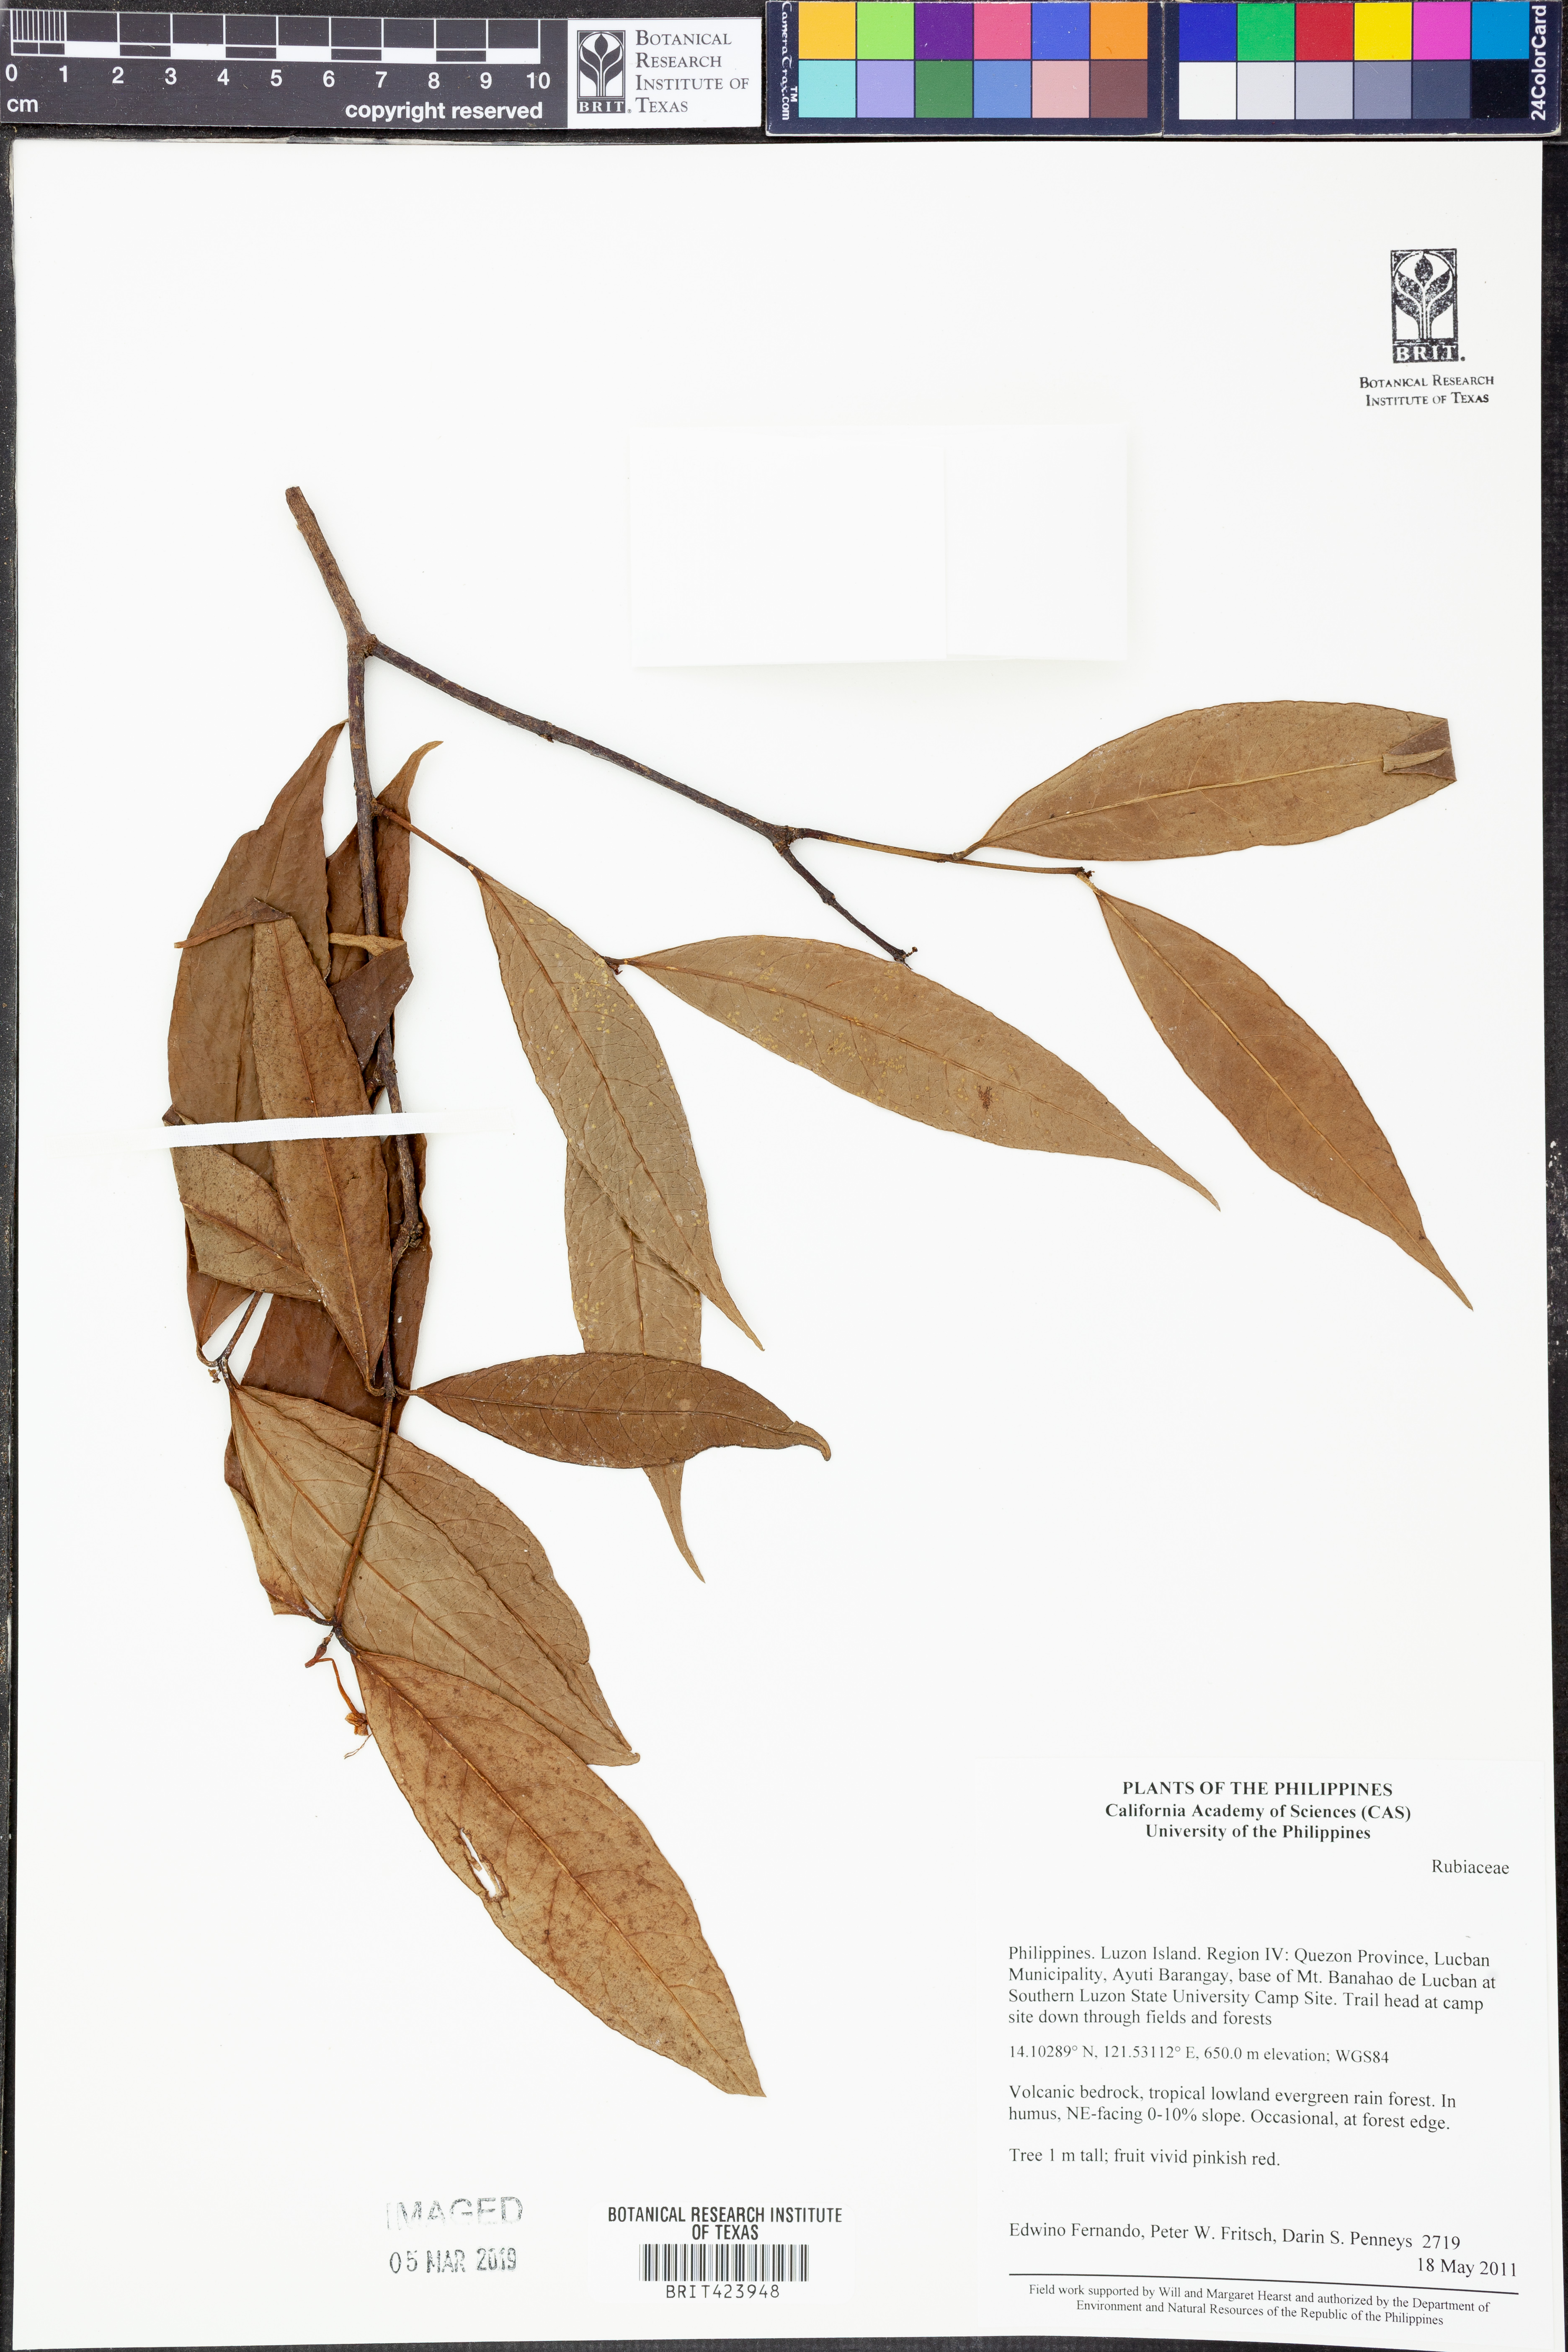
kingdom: Plantae
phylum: Tracheophyta
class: Magnoliopsida
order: Gentianales
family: Rubiaceae
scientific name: Rubiaceae
